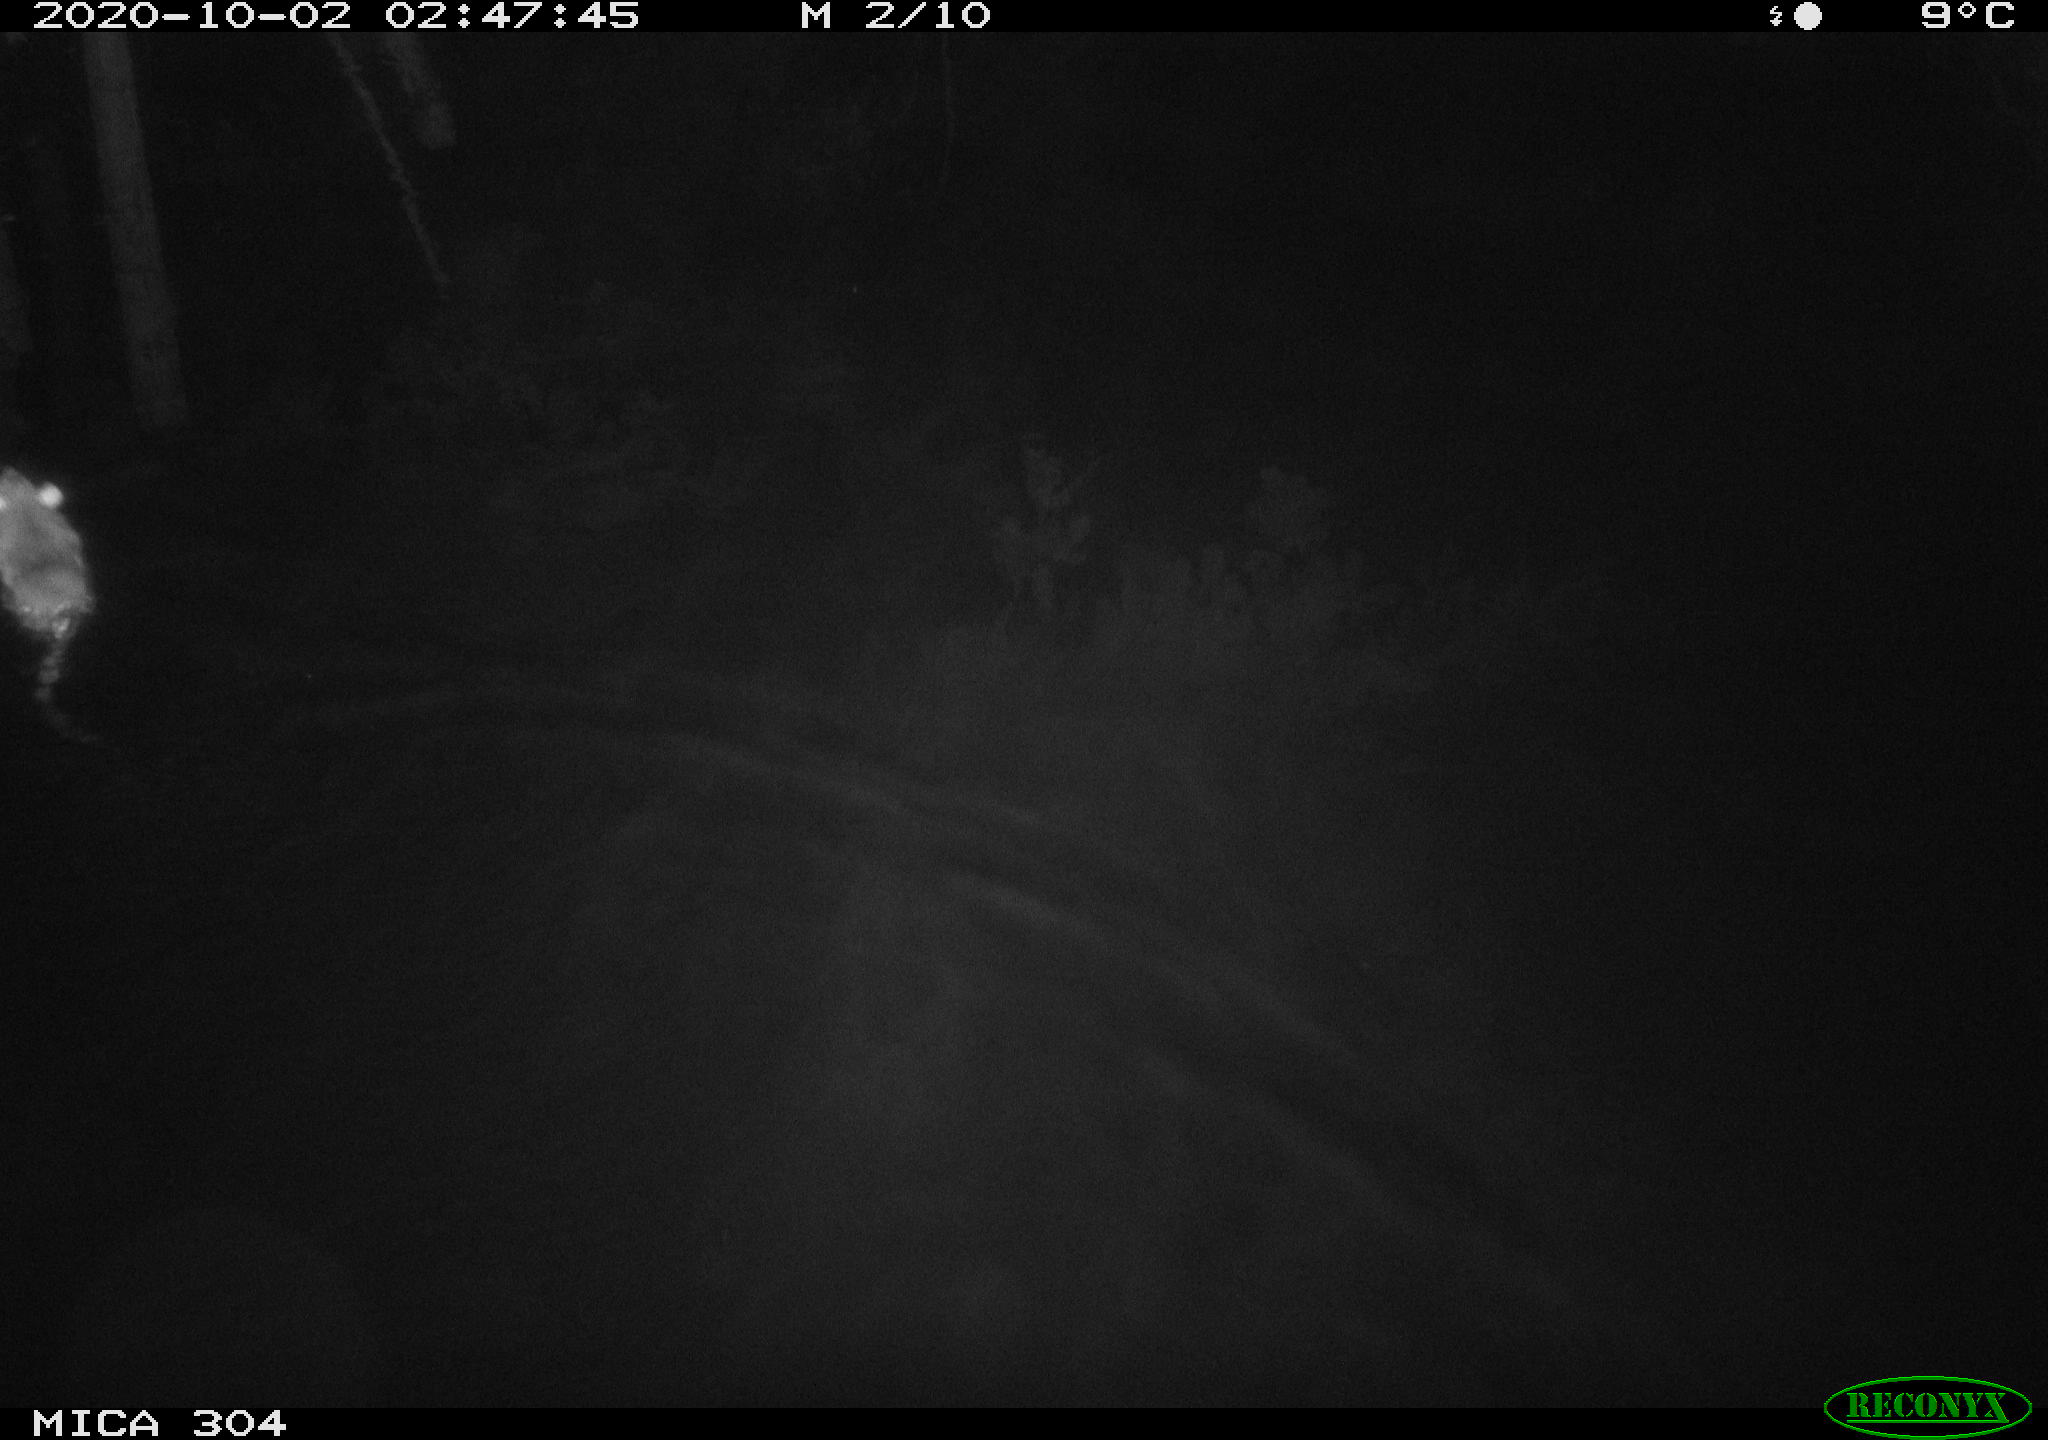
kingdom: Animalia
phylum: Chordata
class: Mammalia
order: Rodentia
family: Muridae
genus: Rattus
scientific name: Rattus norvegicus
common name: Brown rat
